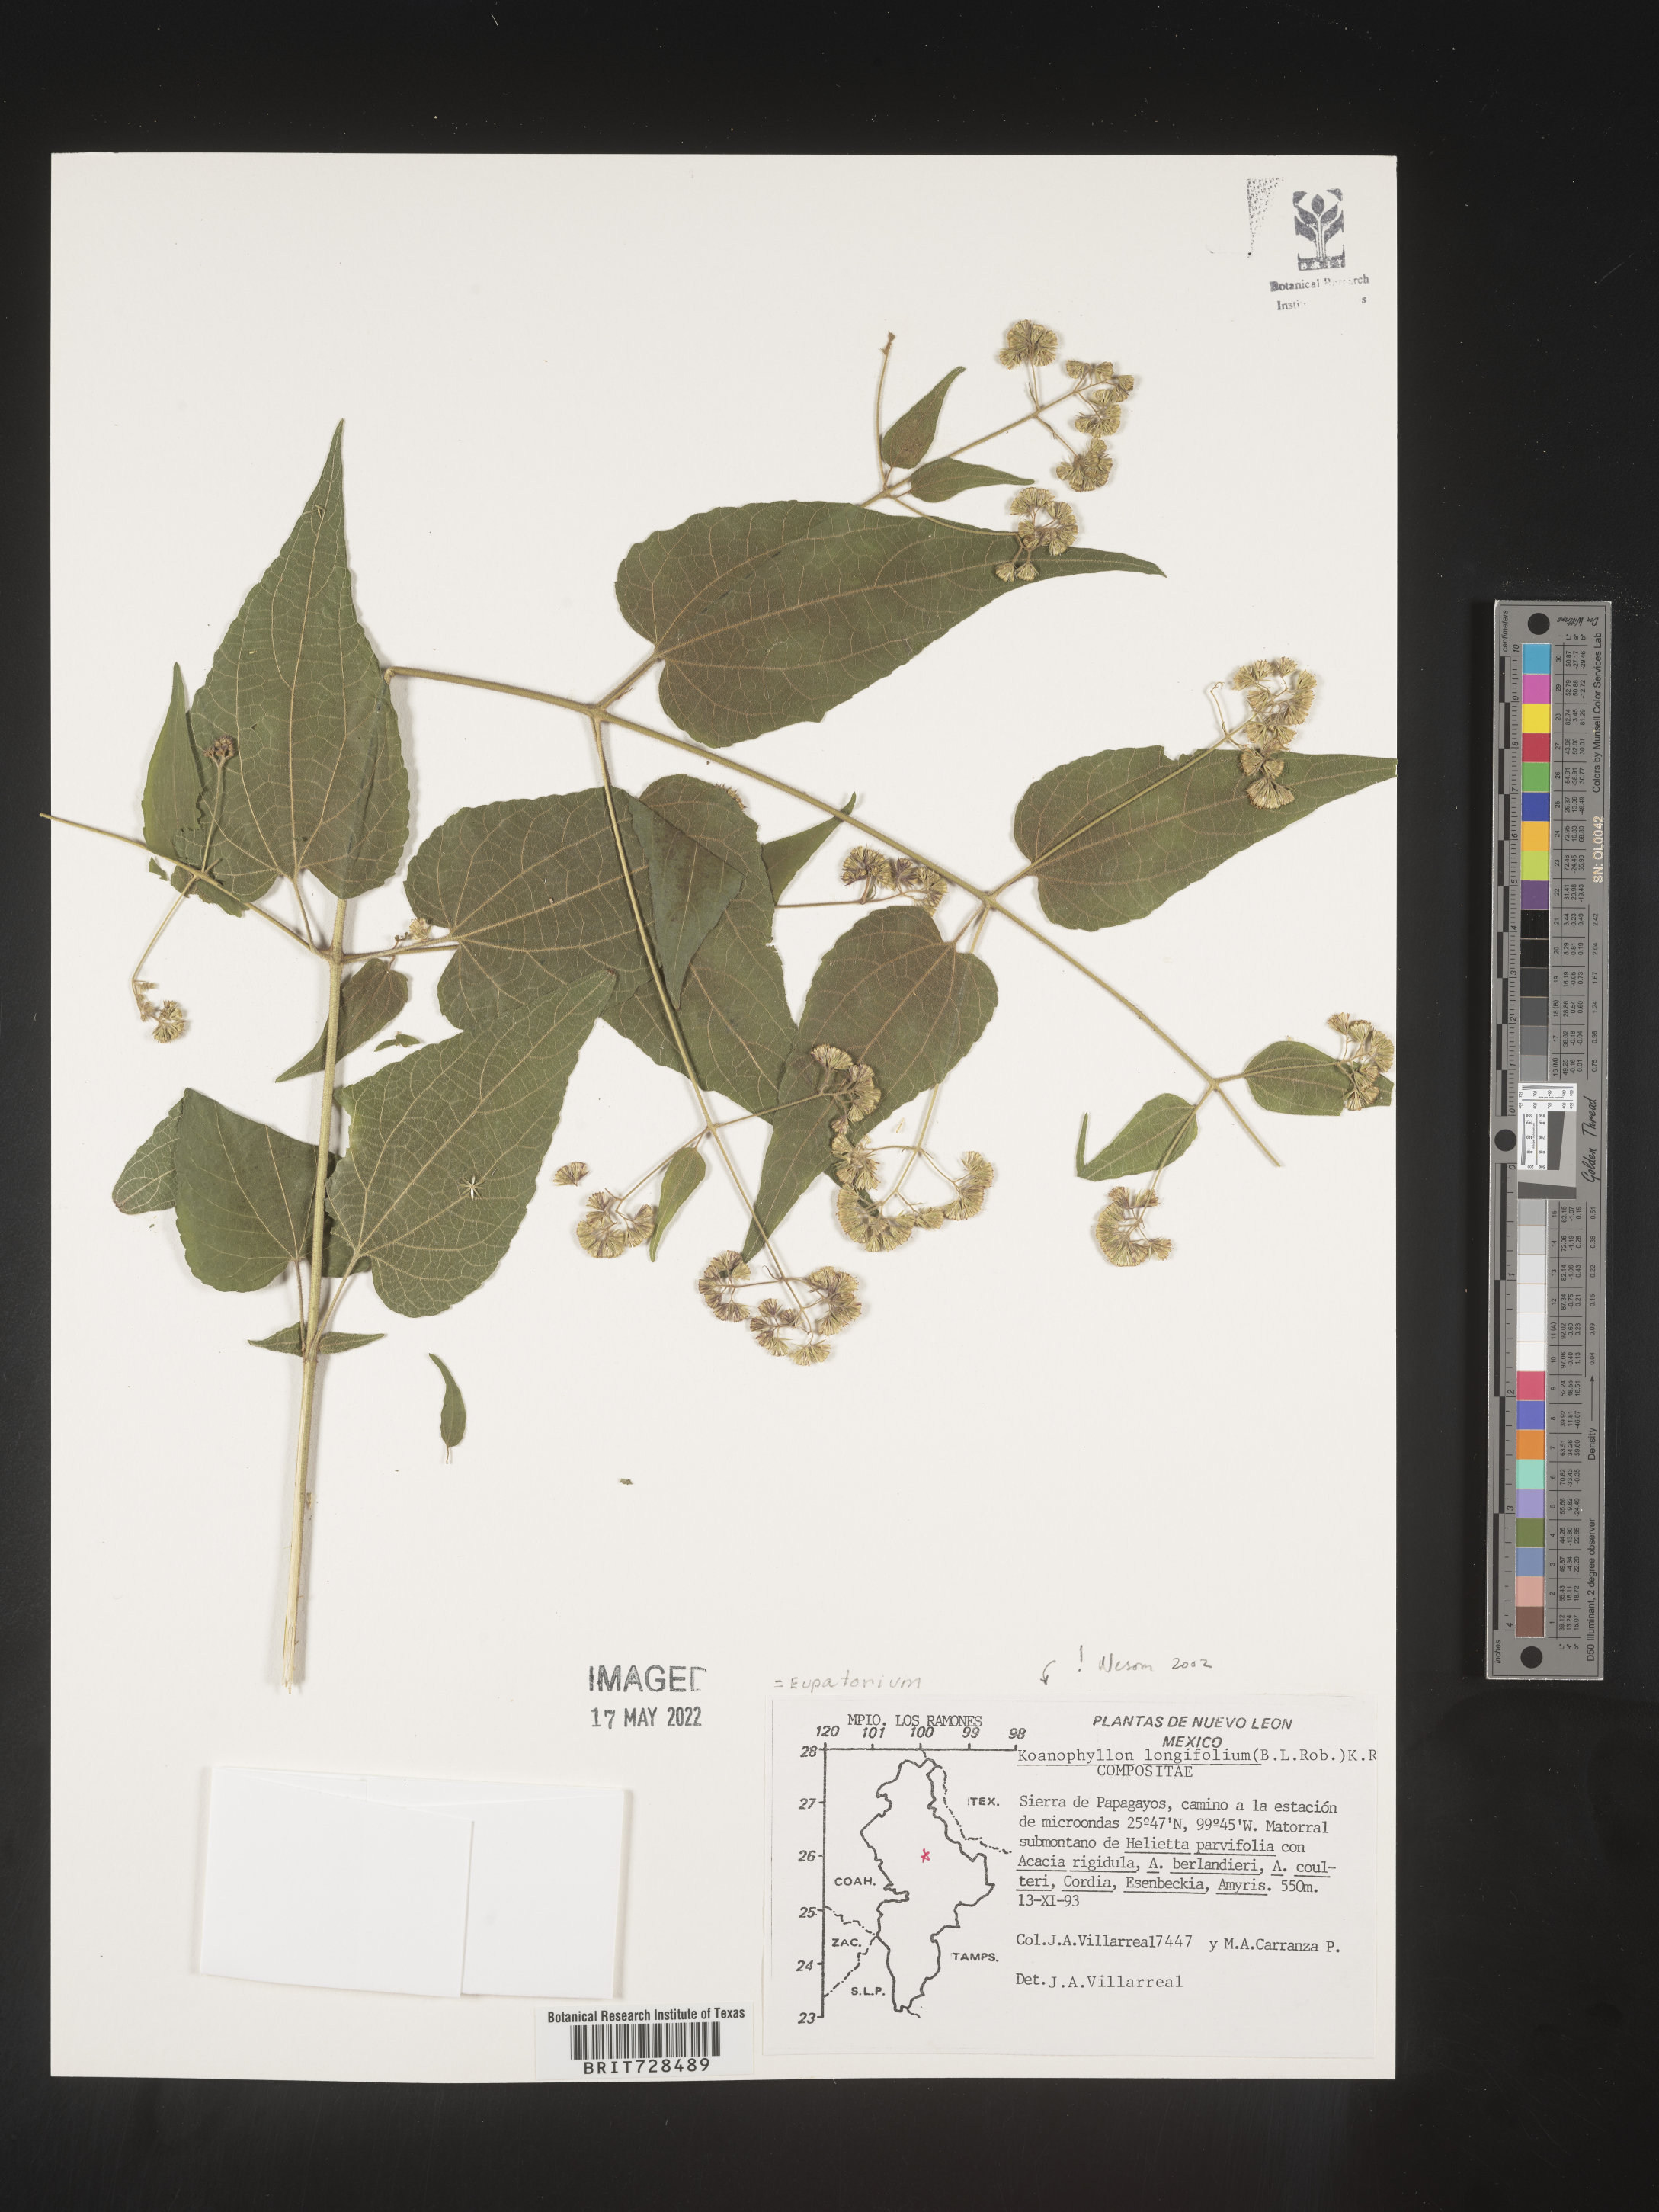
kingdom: Plantae
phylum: Tracheophyta
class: Magnoliopsida
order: Asterales
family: Asteraceae
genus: Koanophyllon
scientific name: Koanophyllon
